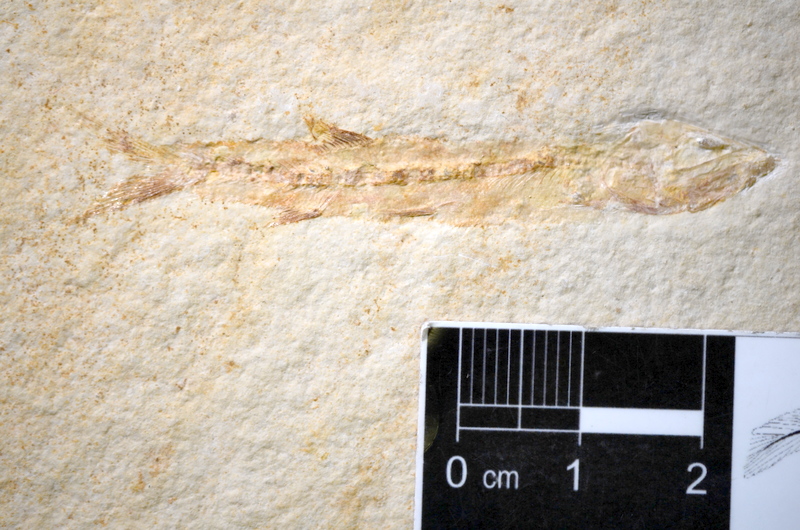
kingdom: Animalia
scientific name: Animalia
